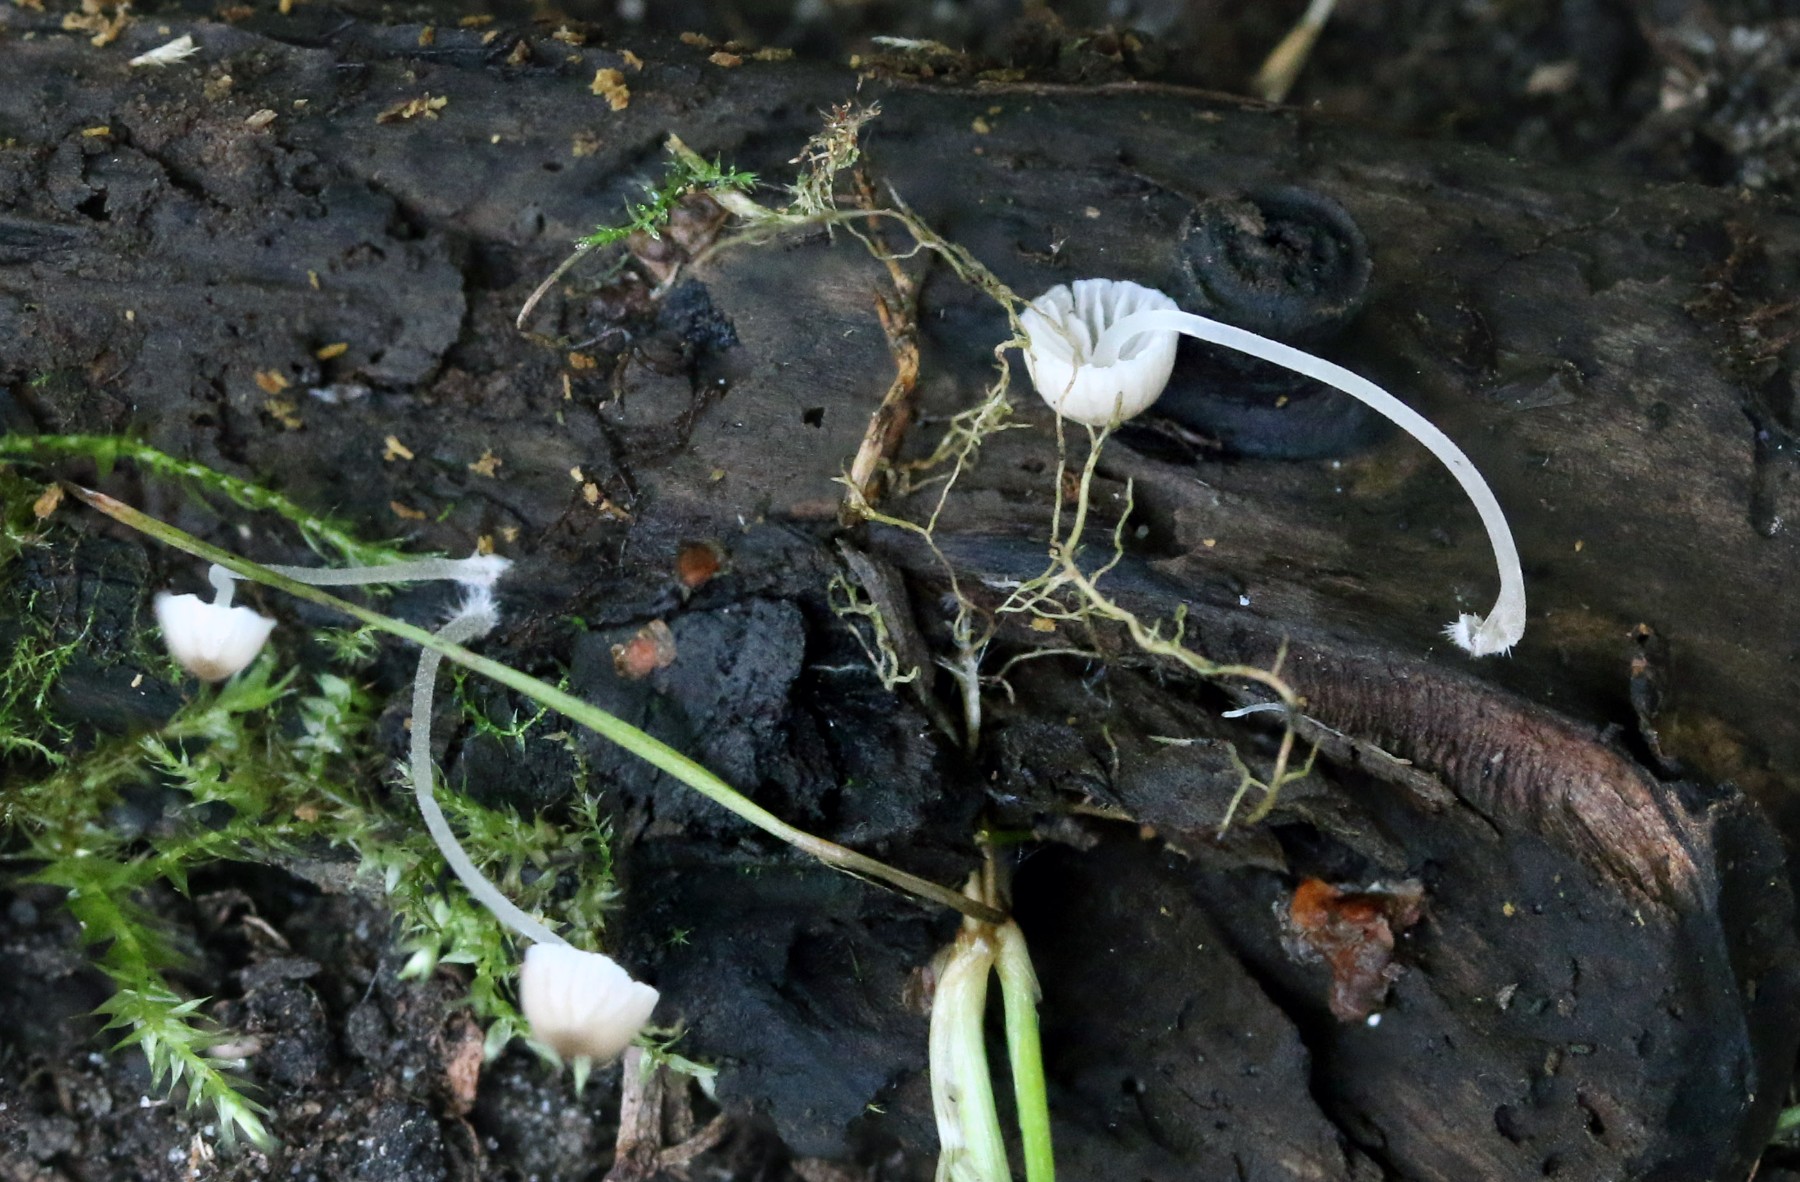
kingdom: Fungi
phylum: Basidiomycota
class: Agaricomycetes
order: Agaricales
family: Porotheleaceae
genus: Phloeomana
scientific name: Phloeomana speirea
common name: kvist-huesvamp
